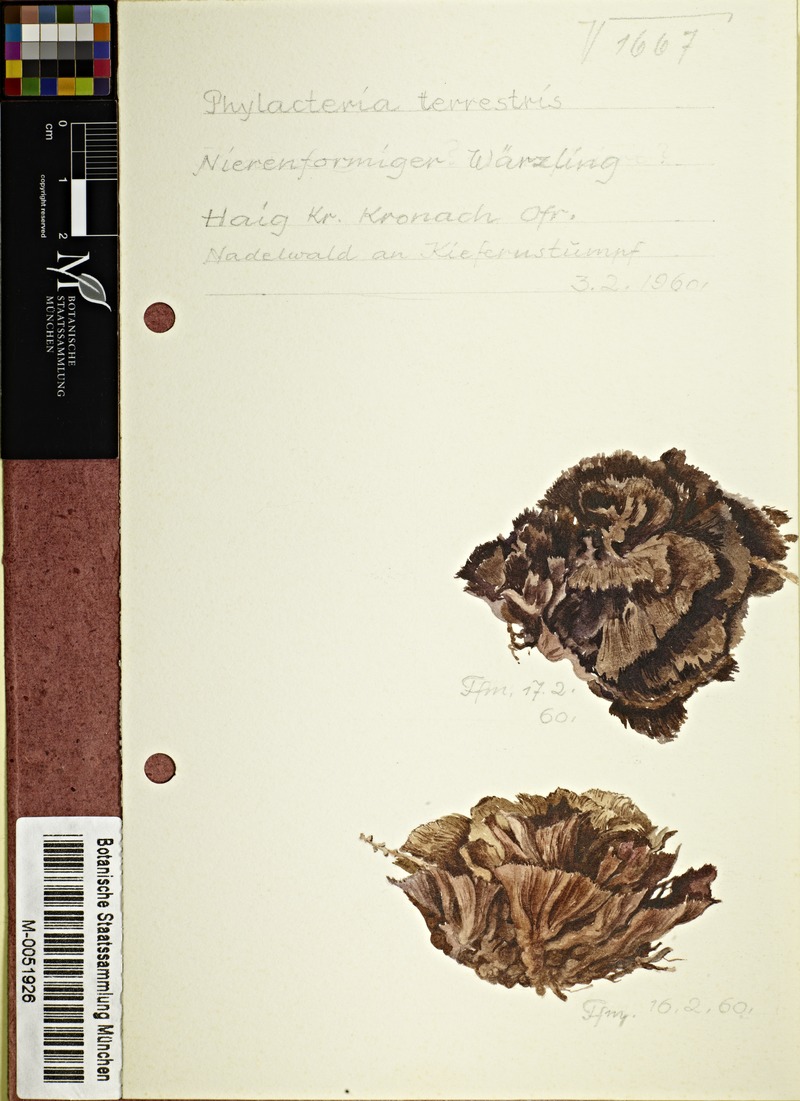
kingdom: Fungi
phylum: Basidiomycota
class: Agaricomycetes
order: Thelephorales
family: Thelephoraceae
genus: Thelephora
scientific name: Thelephora terrestris
